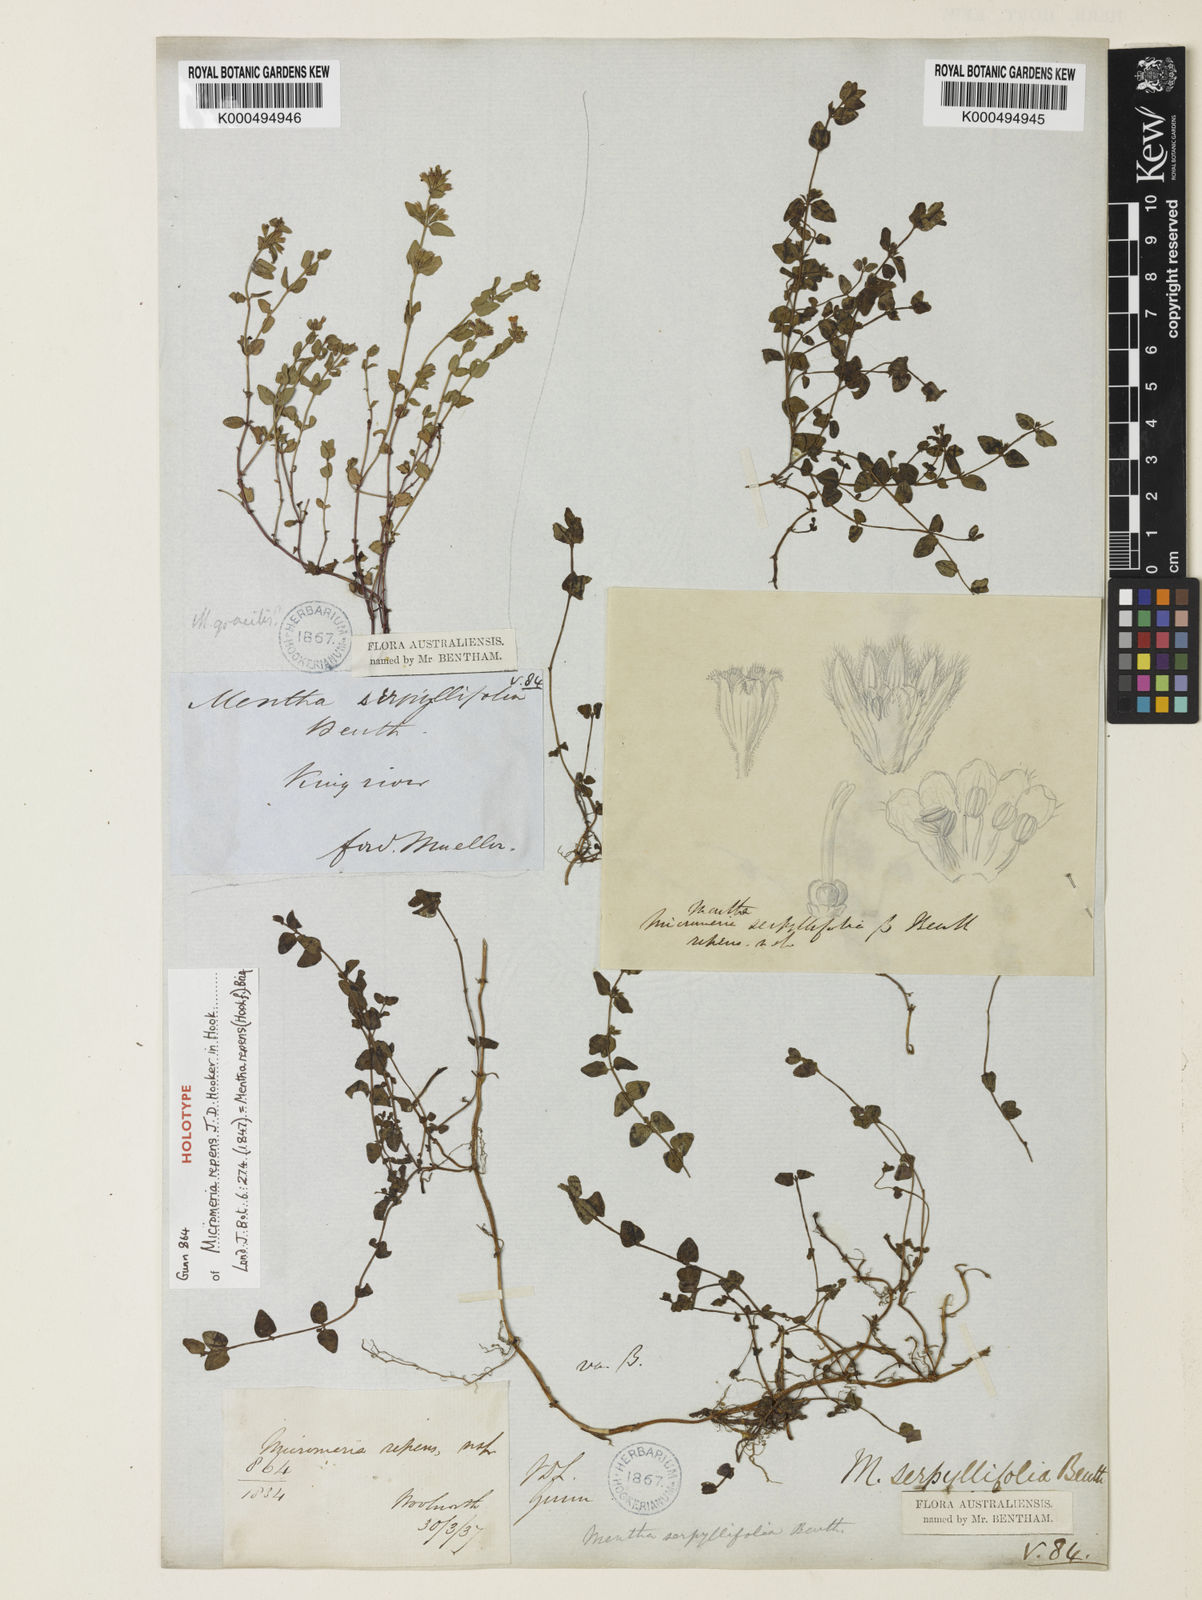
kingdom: Plantae
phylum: Tracheophyta
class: Magnoliopsida
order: Lamiales
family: Lamiaceae
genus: Mentha
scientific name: Mentha diemenica
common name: Wild mint
